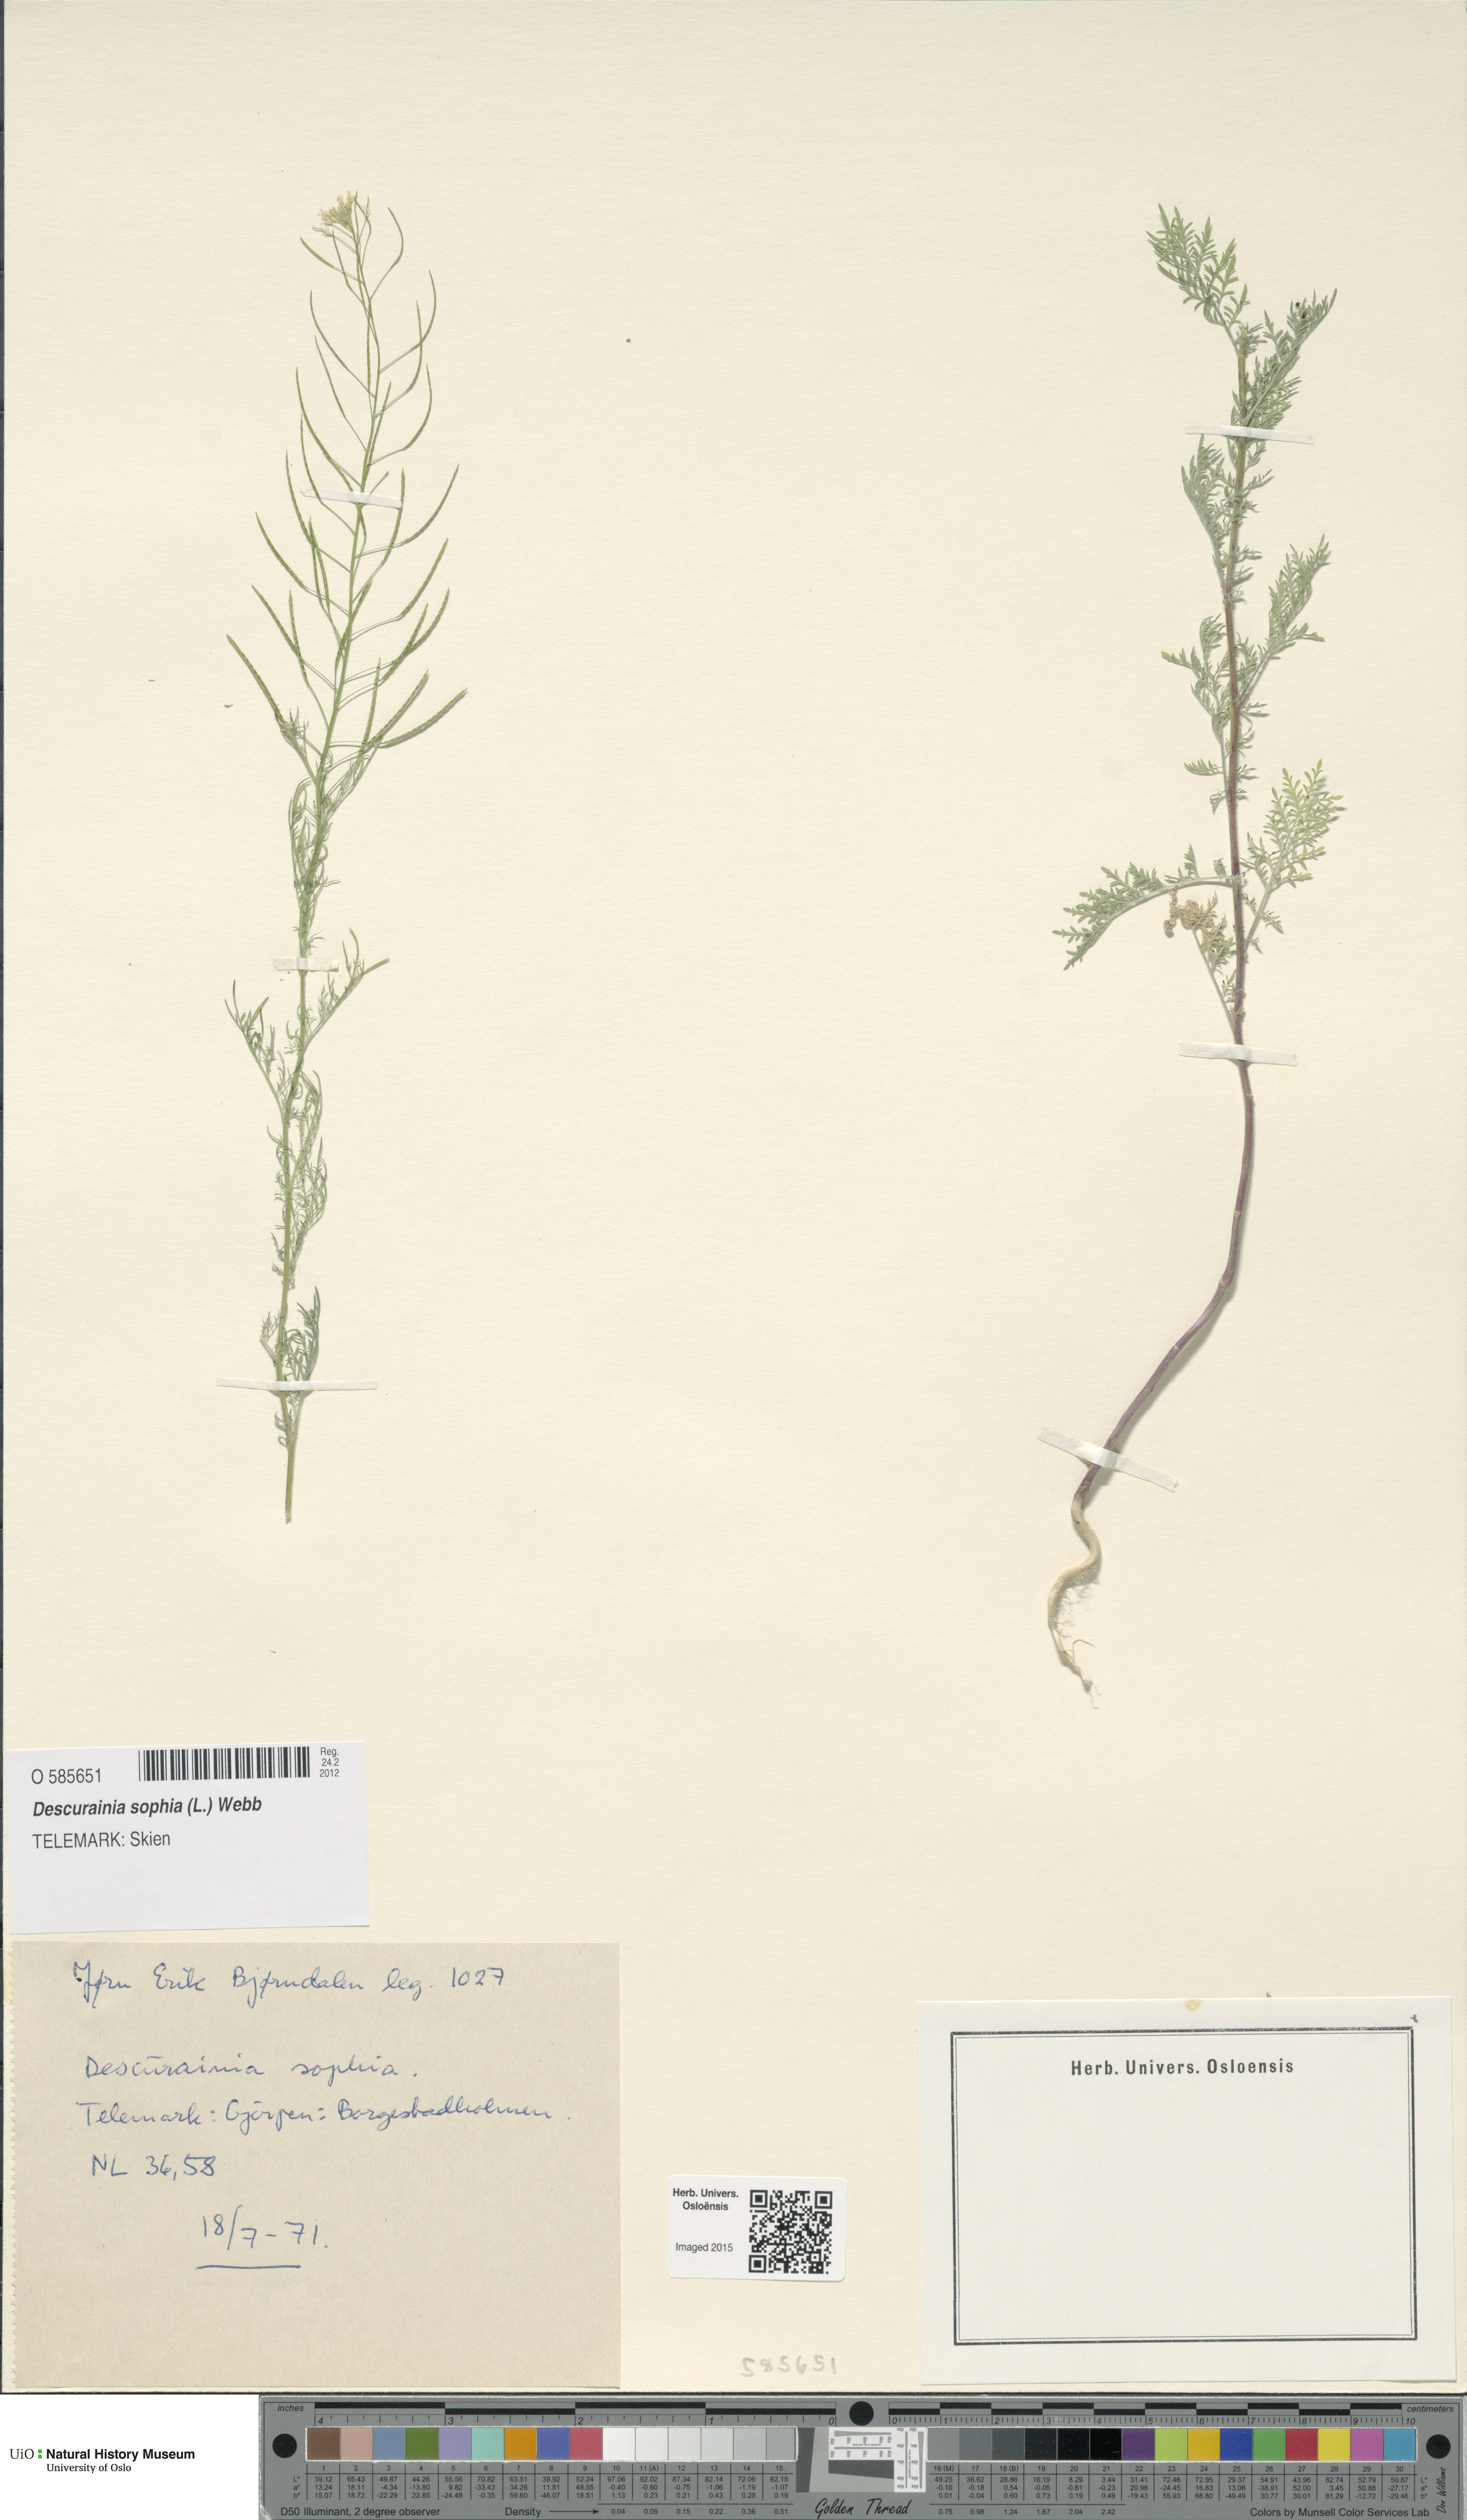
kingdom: Plantae
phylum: Tracheophyta
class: Magnoliopsida
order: Brassicales
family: Brassicaceae
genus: Descurainia
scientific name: Descurainia sophia
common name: Flixweed
